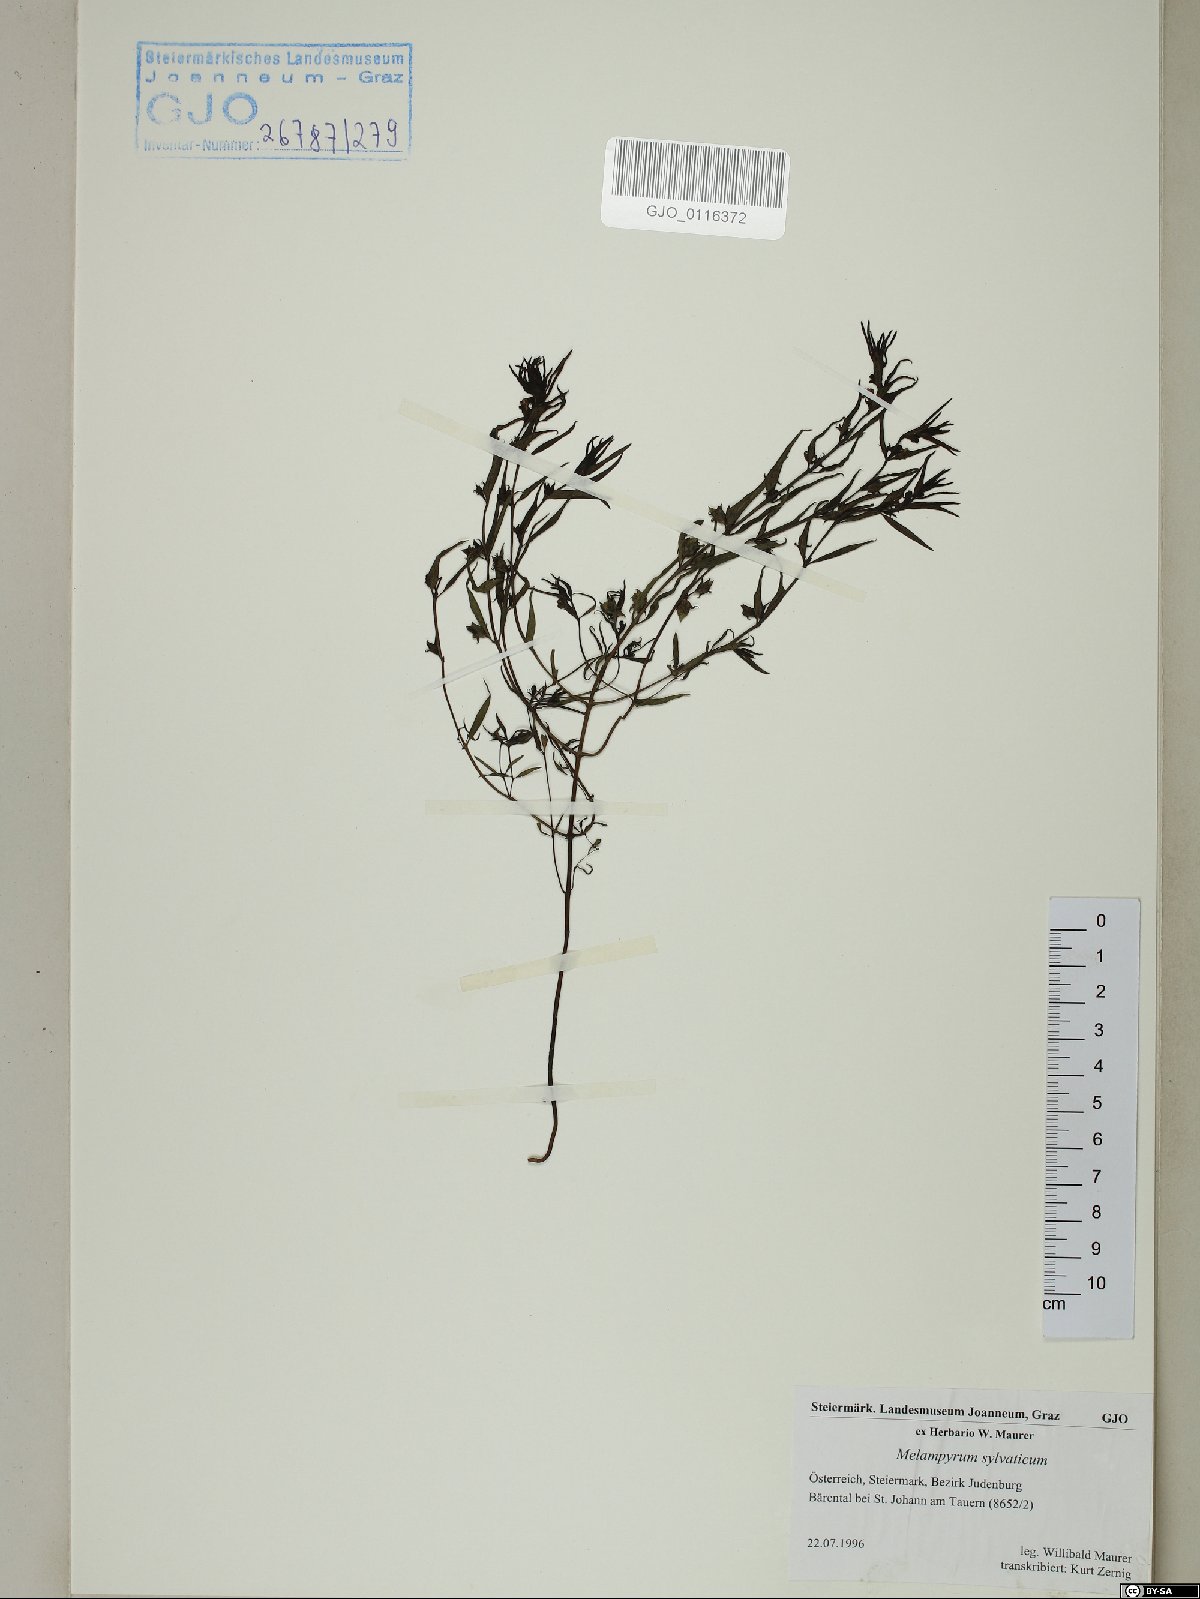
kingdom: Plantae
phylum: Tracheophyta
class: Magnoliopsida
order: Lamiales
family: Orobanchaceae
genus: Melampyrum
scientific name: Melampyrum sylvaticum
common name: Small cow-wheat
